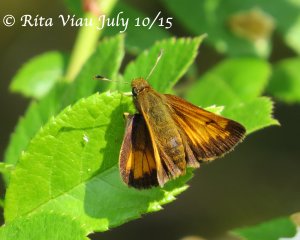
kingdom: Animalia
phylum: Arthropoda
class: Insecta
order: Lepidoptera
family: Hesperiidae
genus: Lon
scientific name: Lon hobomok
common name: Hobomok Skipper
